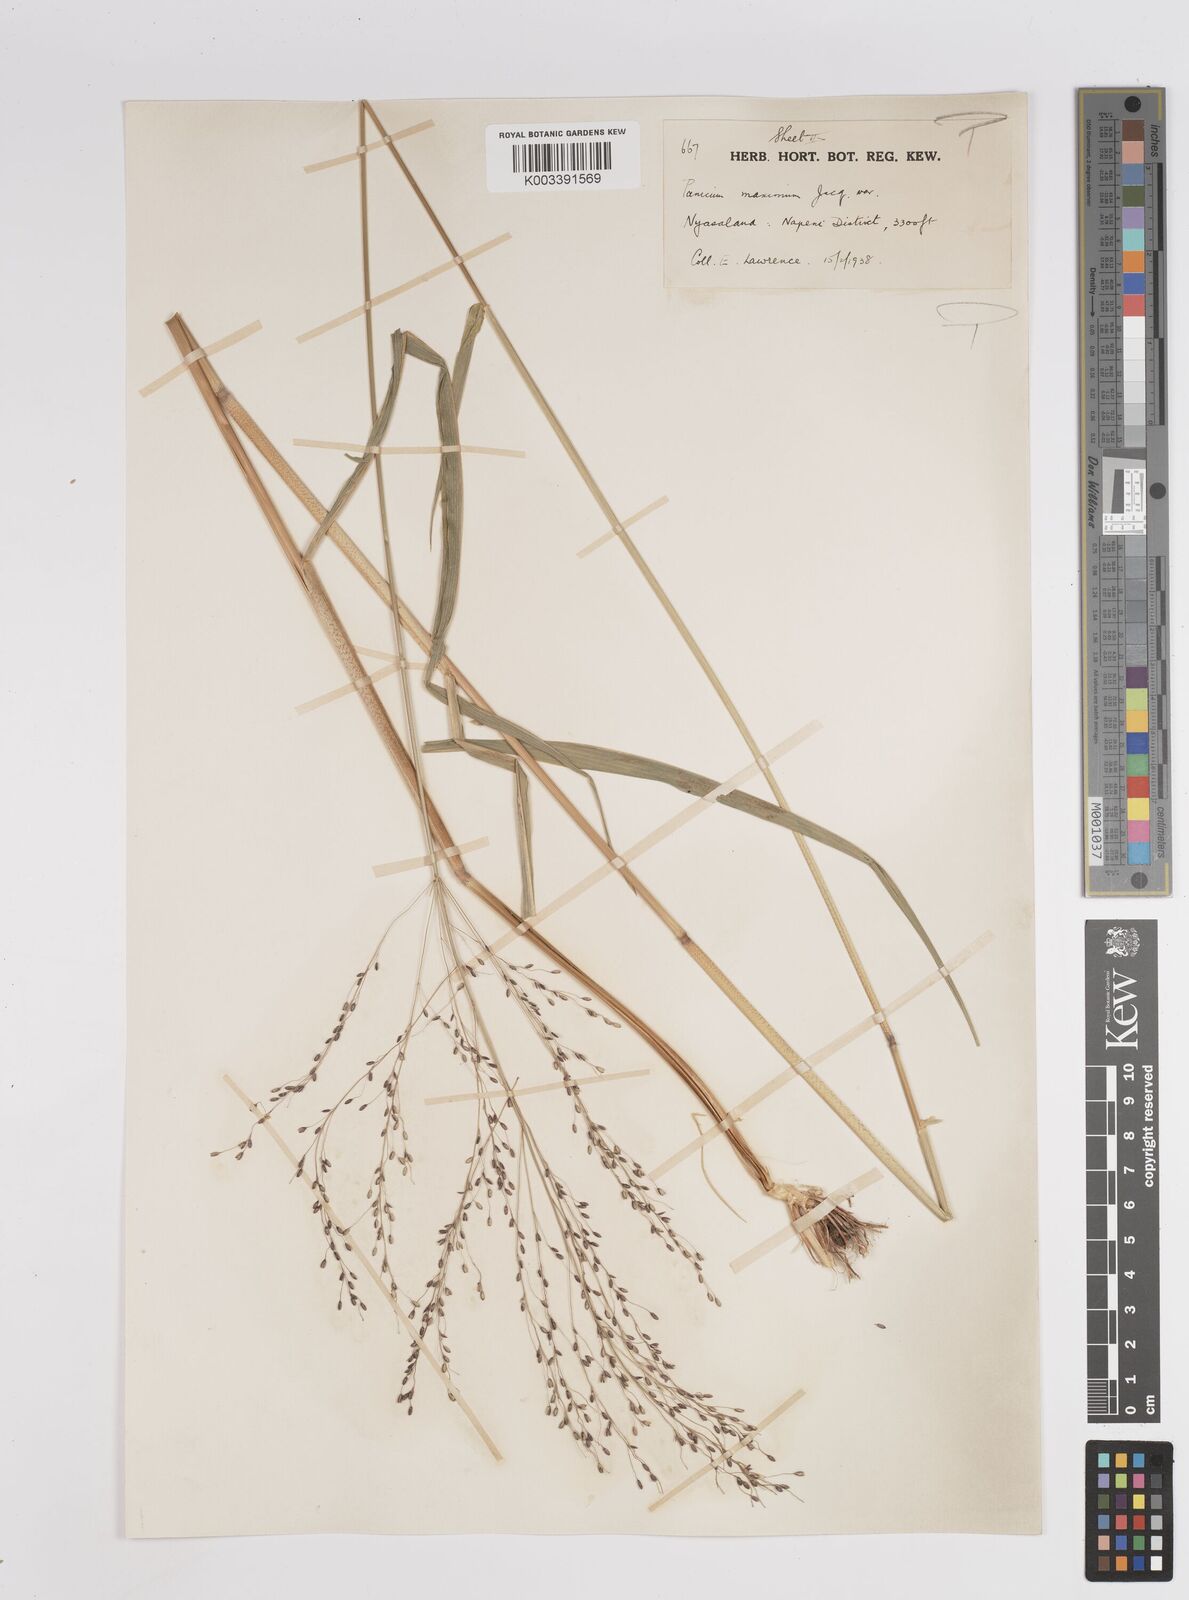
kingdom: Plantae
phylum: Tracheophyta
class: Liliopsida
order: Poales
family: Poaceae
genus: Megathyrsus
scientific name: Megathyrsus maximus
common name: Guineagrass
